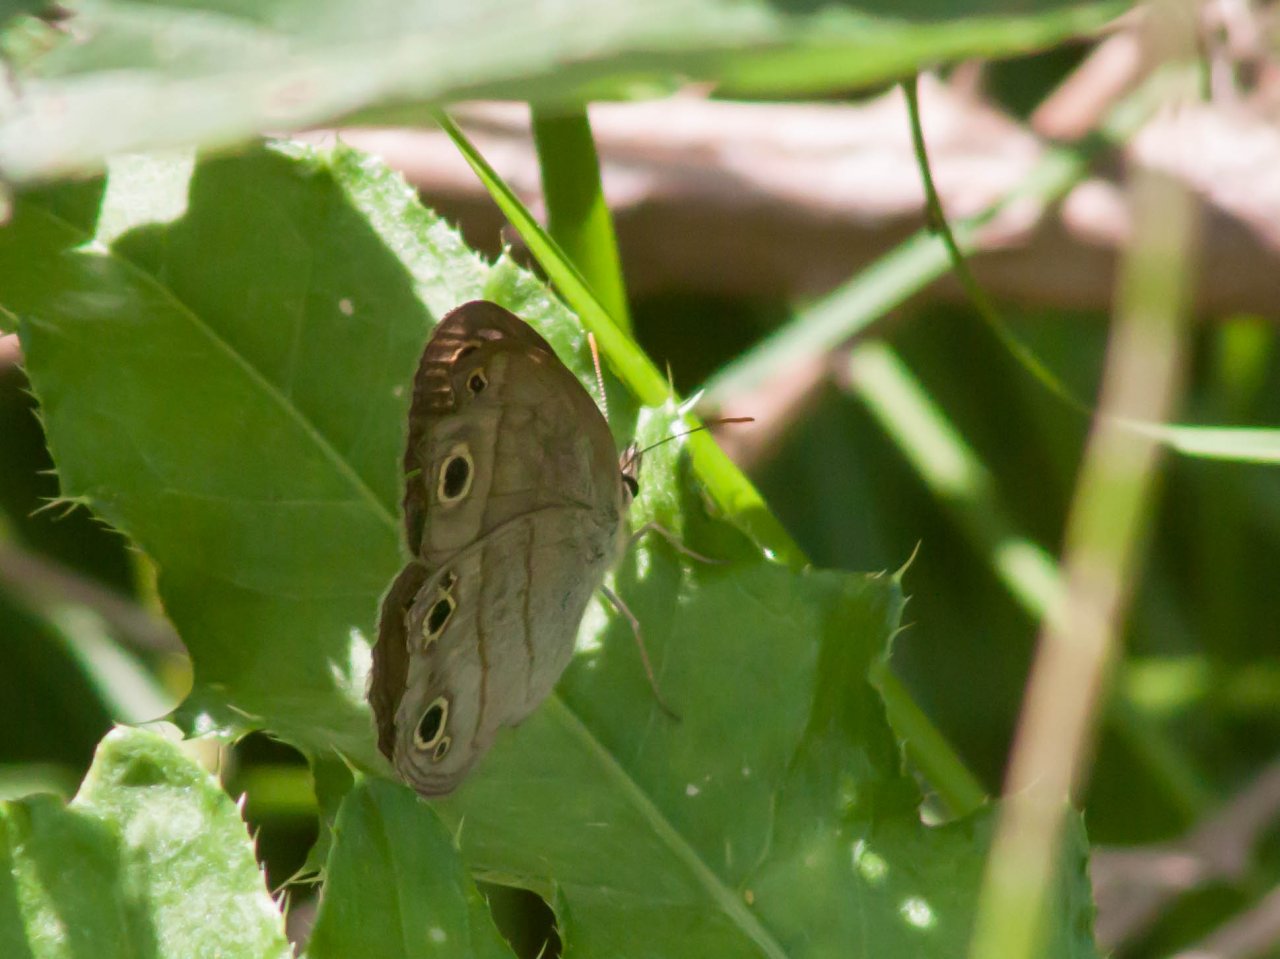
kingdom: Animalia
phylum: Arthropoda
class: Insecta
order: Lepidoptera
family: Nymphalidae
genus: Euptychia
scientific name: Euptychia cymela
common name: Little Wood Satyr
